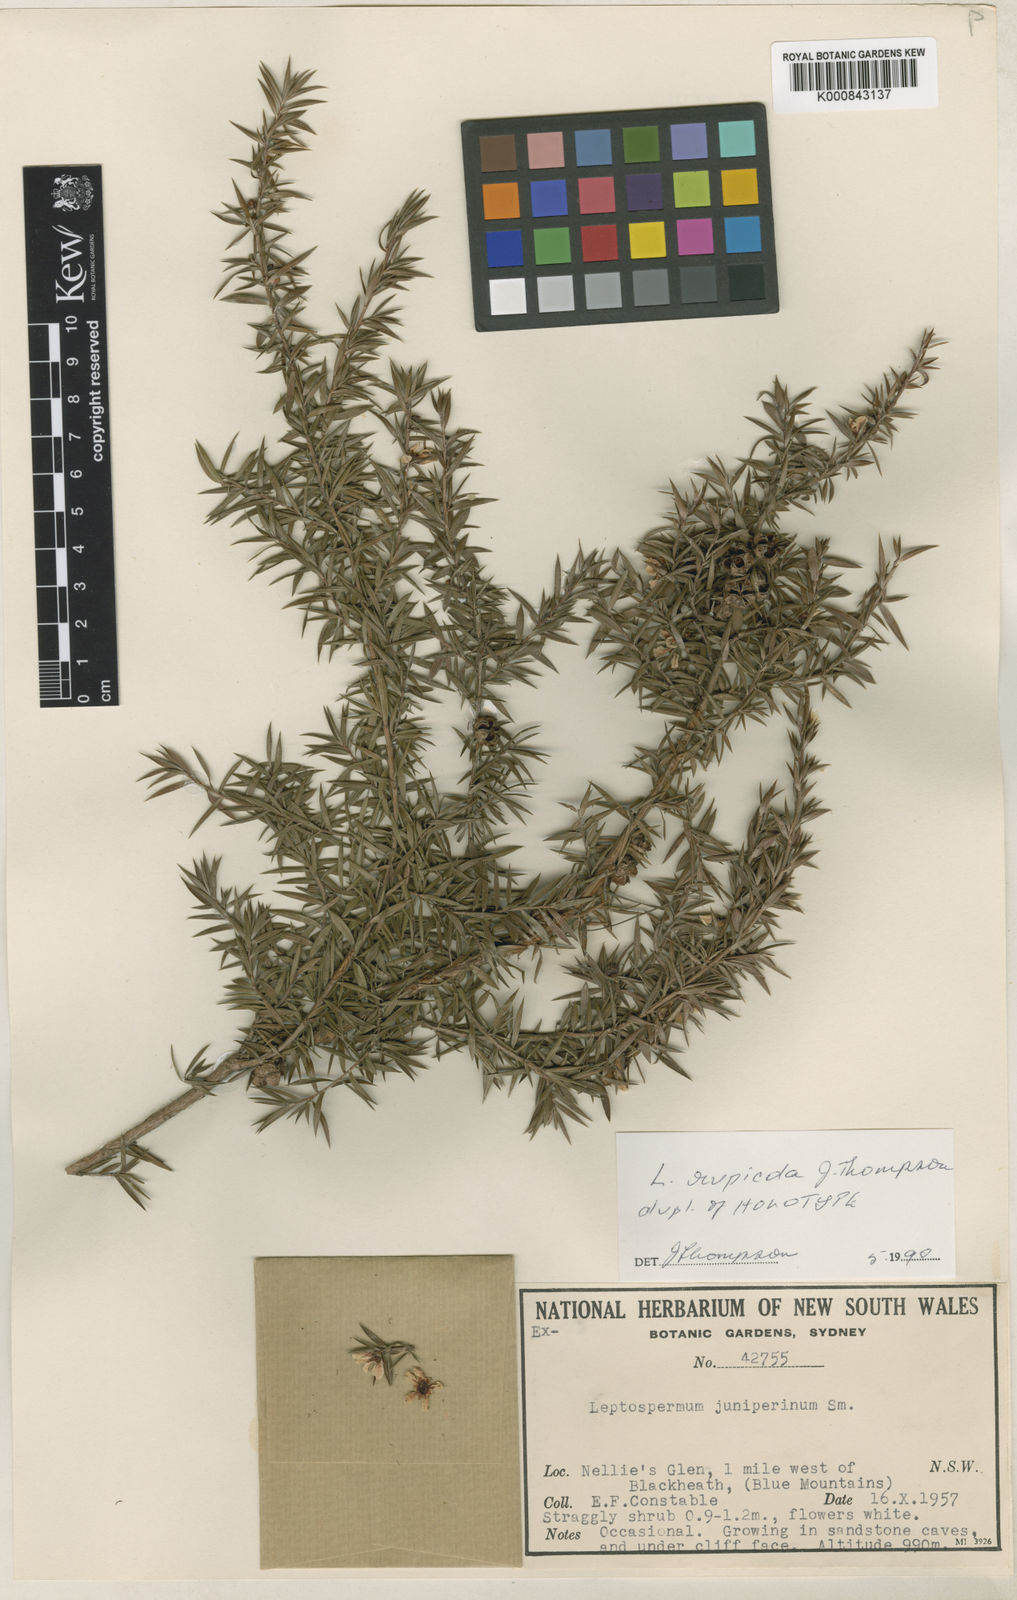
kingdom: Plantae
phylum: Tracheophyta
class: Magnoliopsida
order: Myrtales
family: Myrtaceae
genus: Leptospermum
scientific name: Leptospermum rupicola
